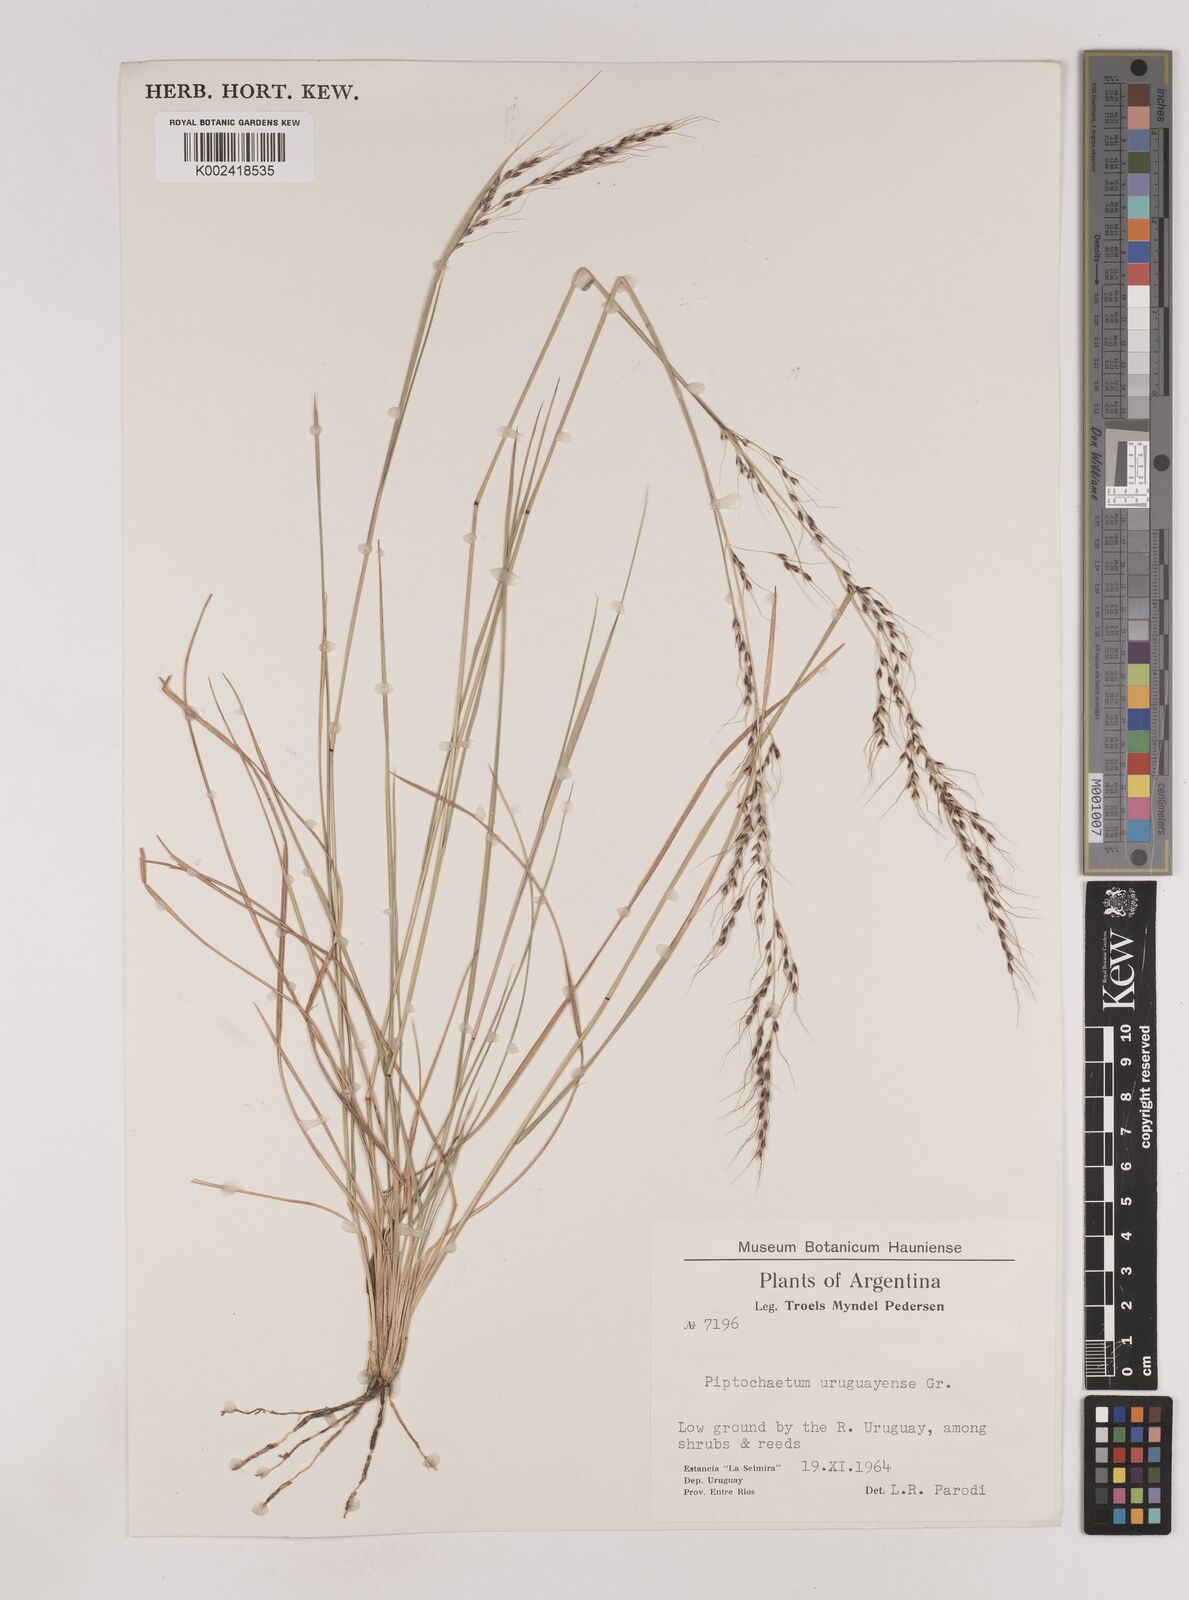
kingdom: Plantae
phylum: Tracheophyta
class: Liliopsida
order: Poales
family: Poaceae
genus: Piptochaetium
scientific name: Piptochaetium uruguense
